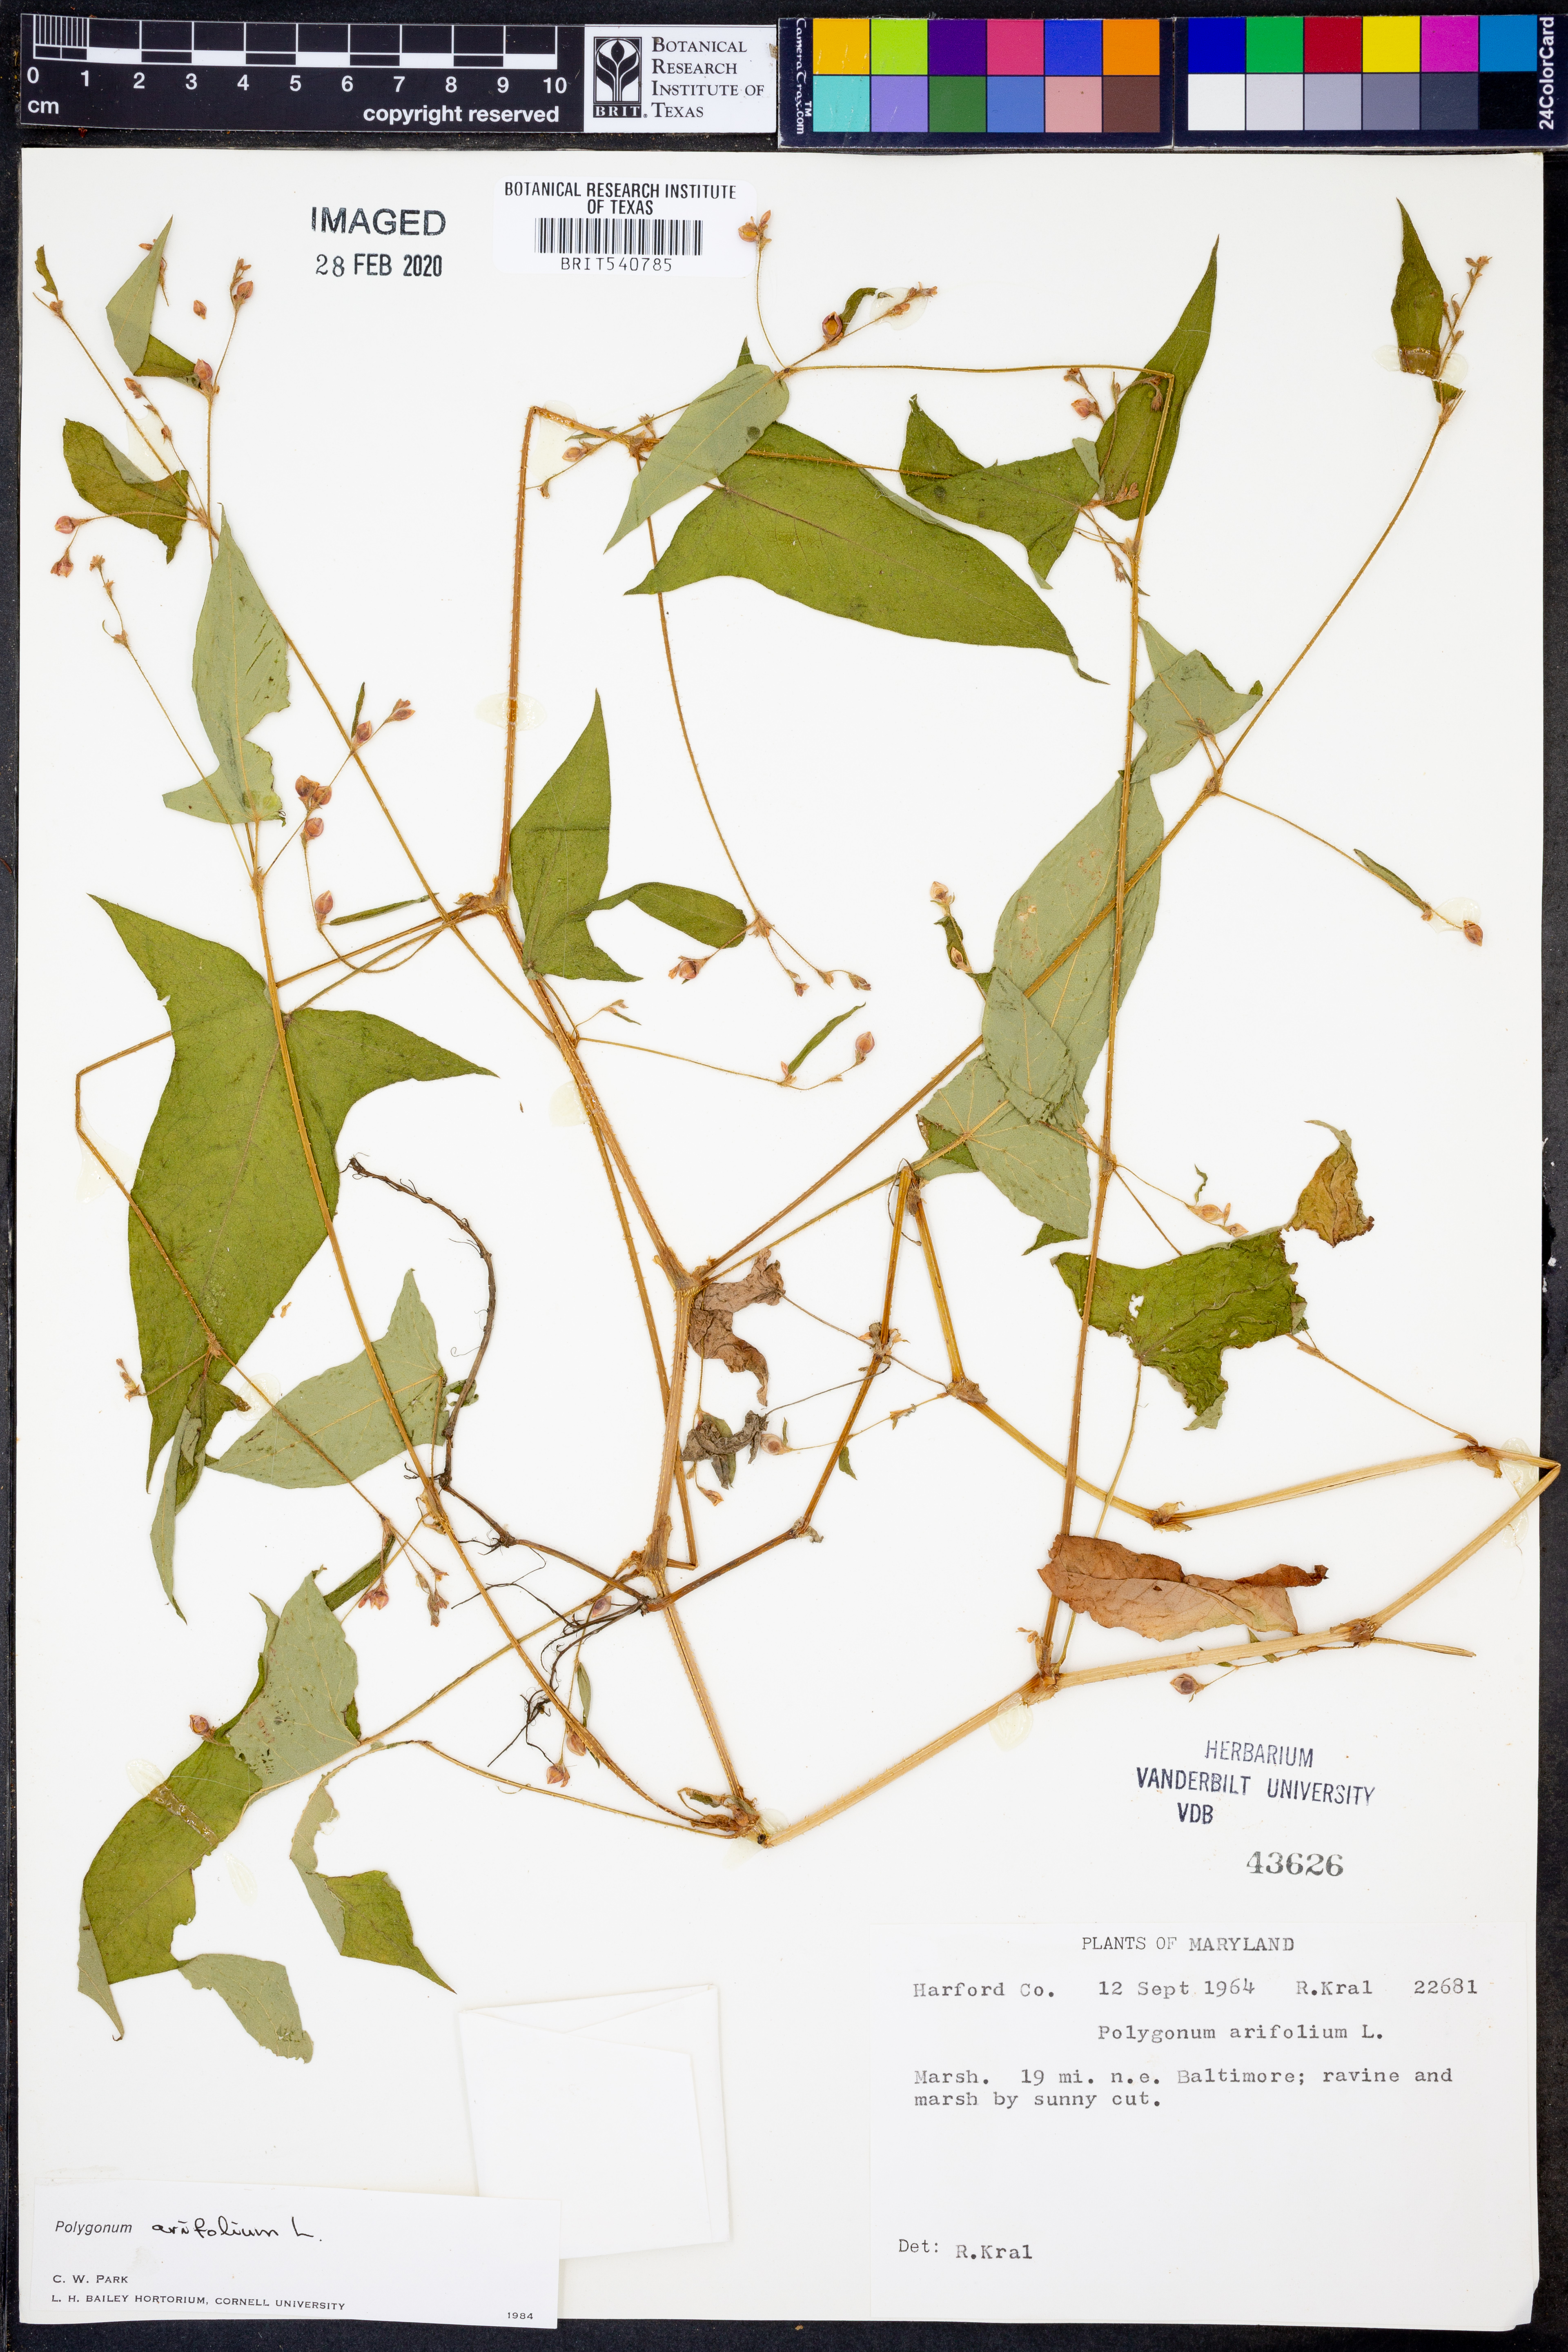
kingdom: Plantae
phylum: Tracheophyta
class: Magnoliopsida
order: Caryophyllales
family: Polygonaceae
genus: Persicaria
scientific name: Persicaria arifolia
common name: Halberd-leaved tear-thumb
